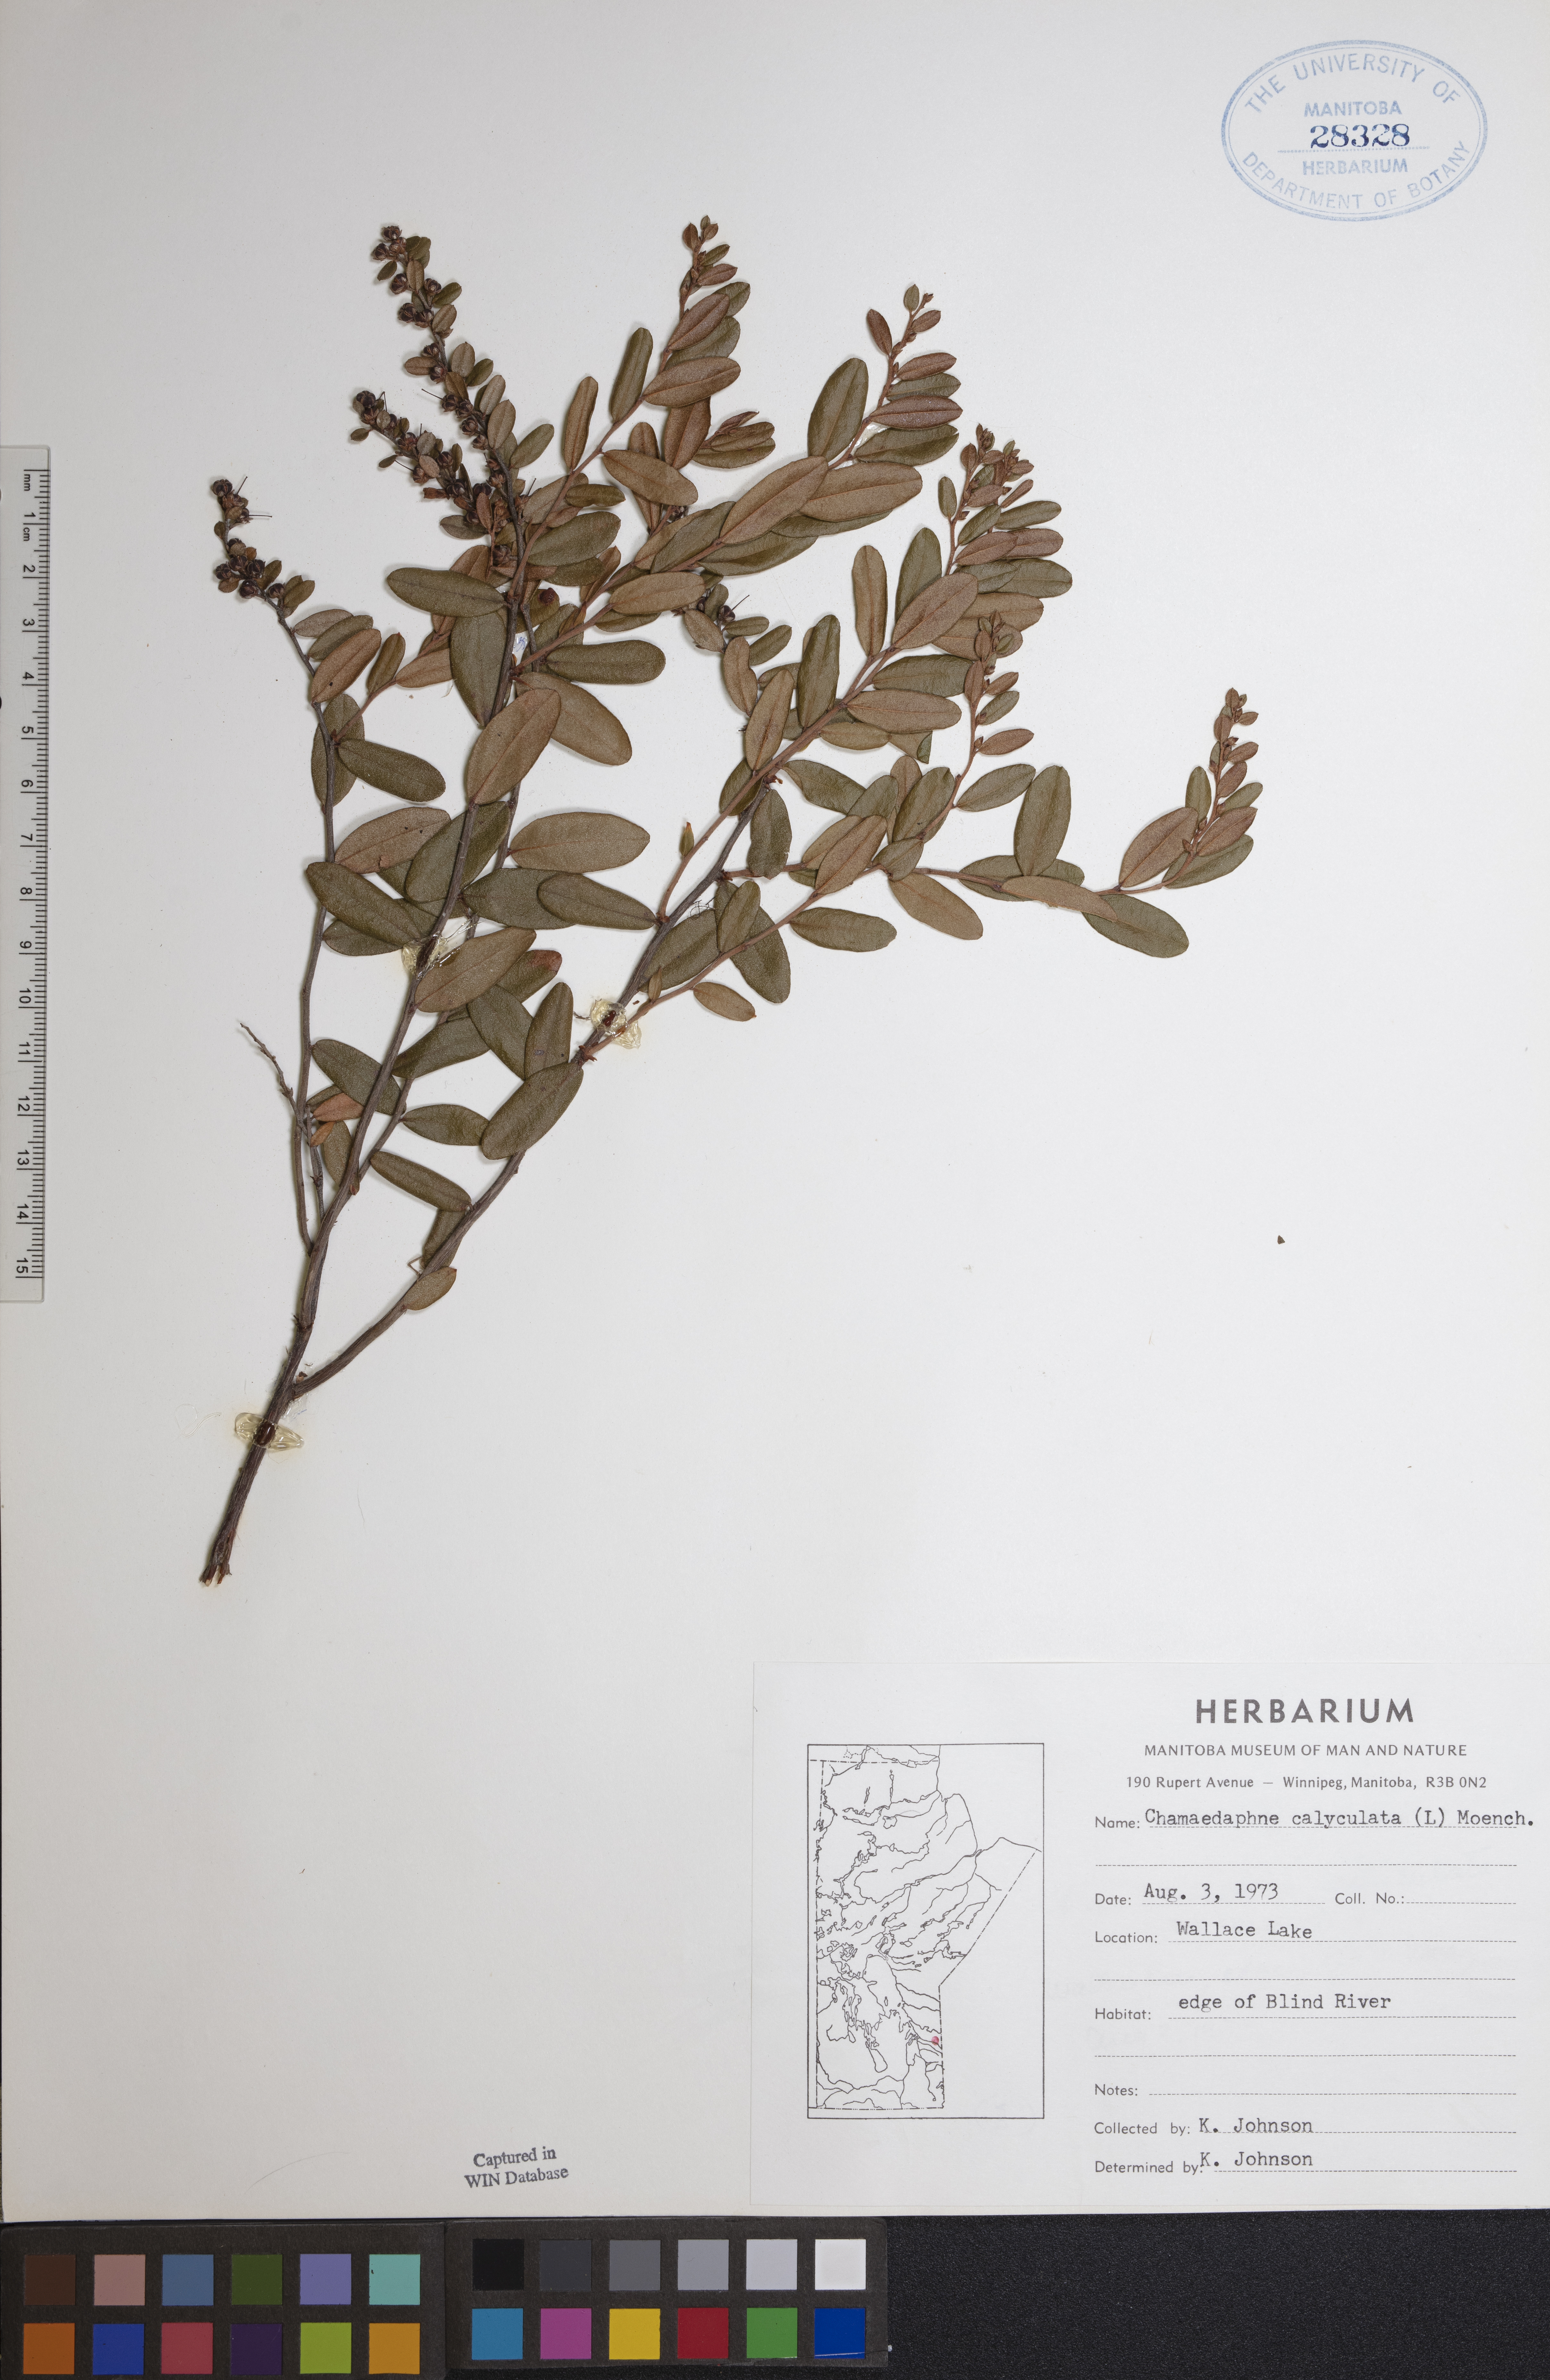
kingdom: Plantae
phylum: Tracheophyta
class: Magnoliopsida
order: Ericales
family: Ericaceae
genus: Chamaedaphne
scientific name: Chamaedaphne calyculata
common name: Leatherleaf
